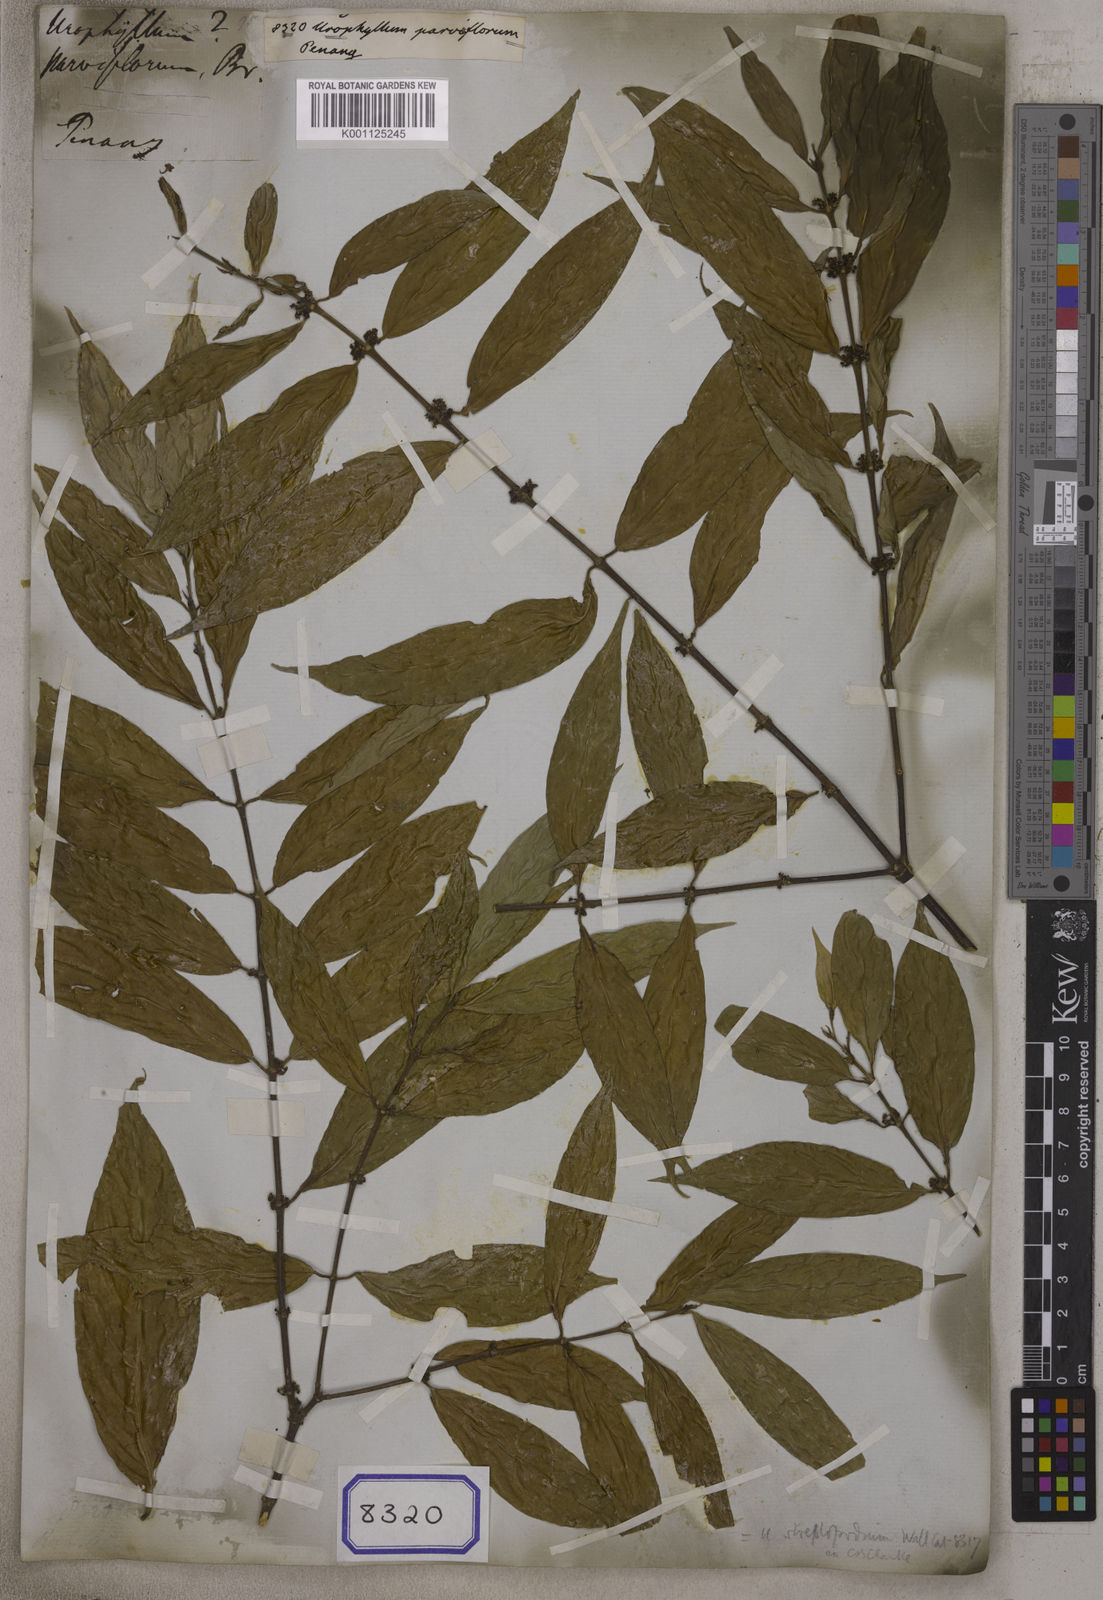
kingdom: Plantae
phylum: Tracheophyta
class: Magnoliopsida
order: Gentianales
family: Rubiaceae
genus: Urophyllum
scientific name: Urophyllum streptopodium
